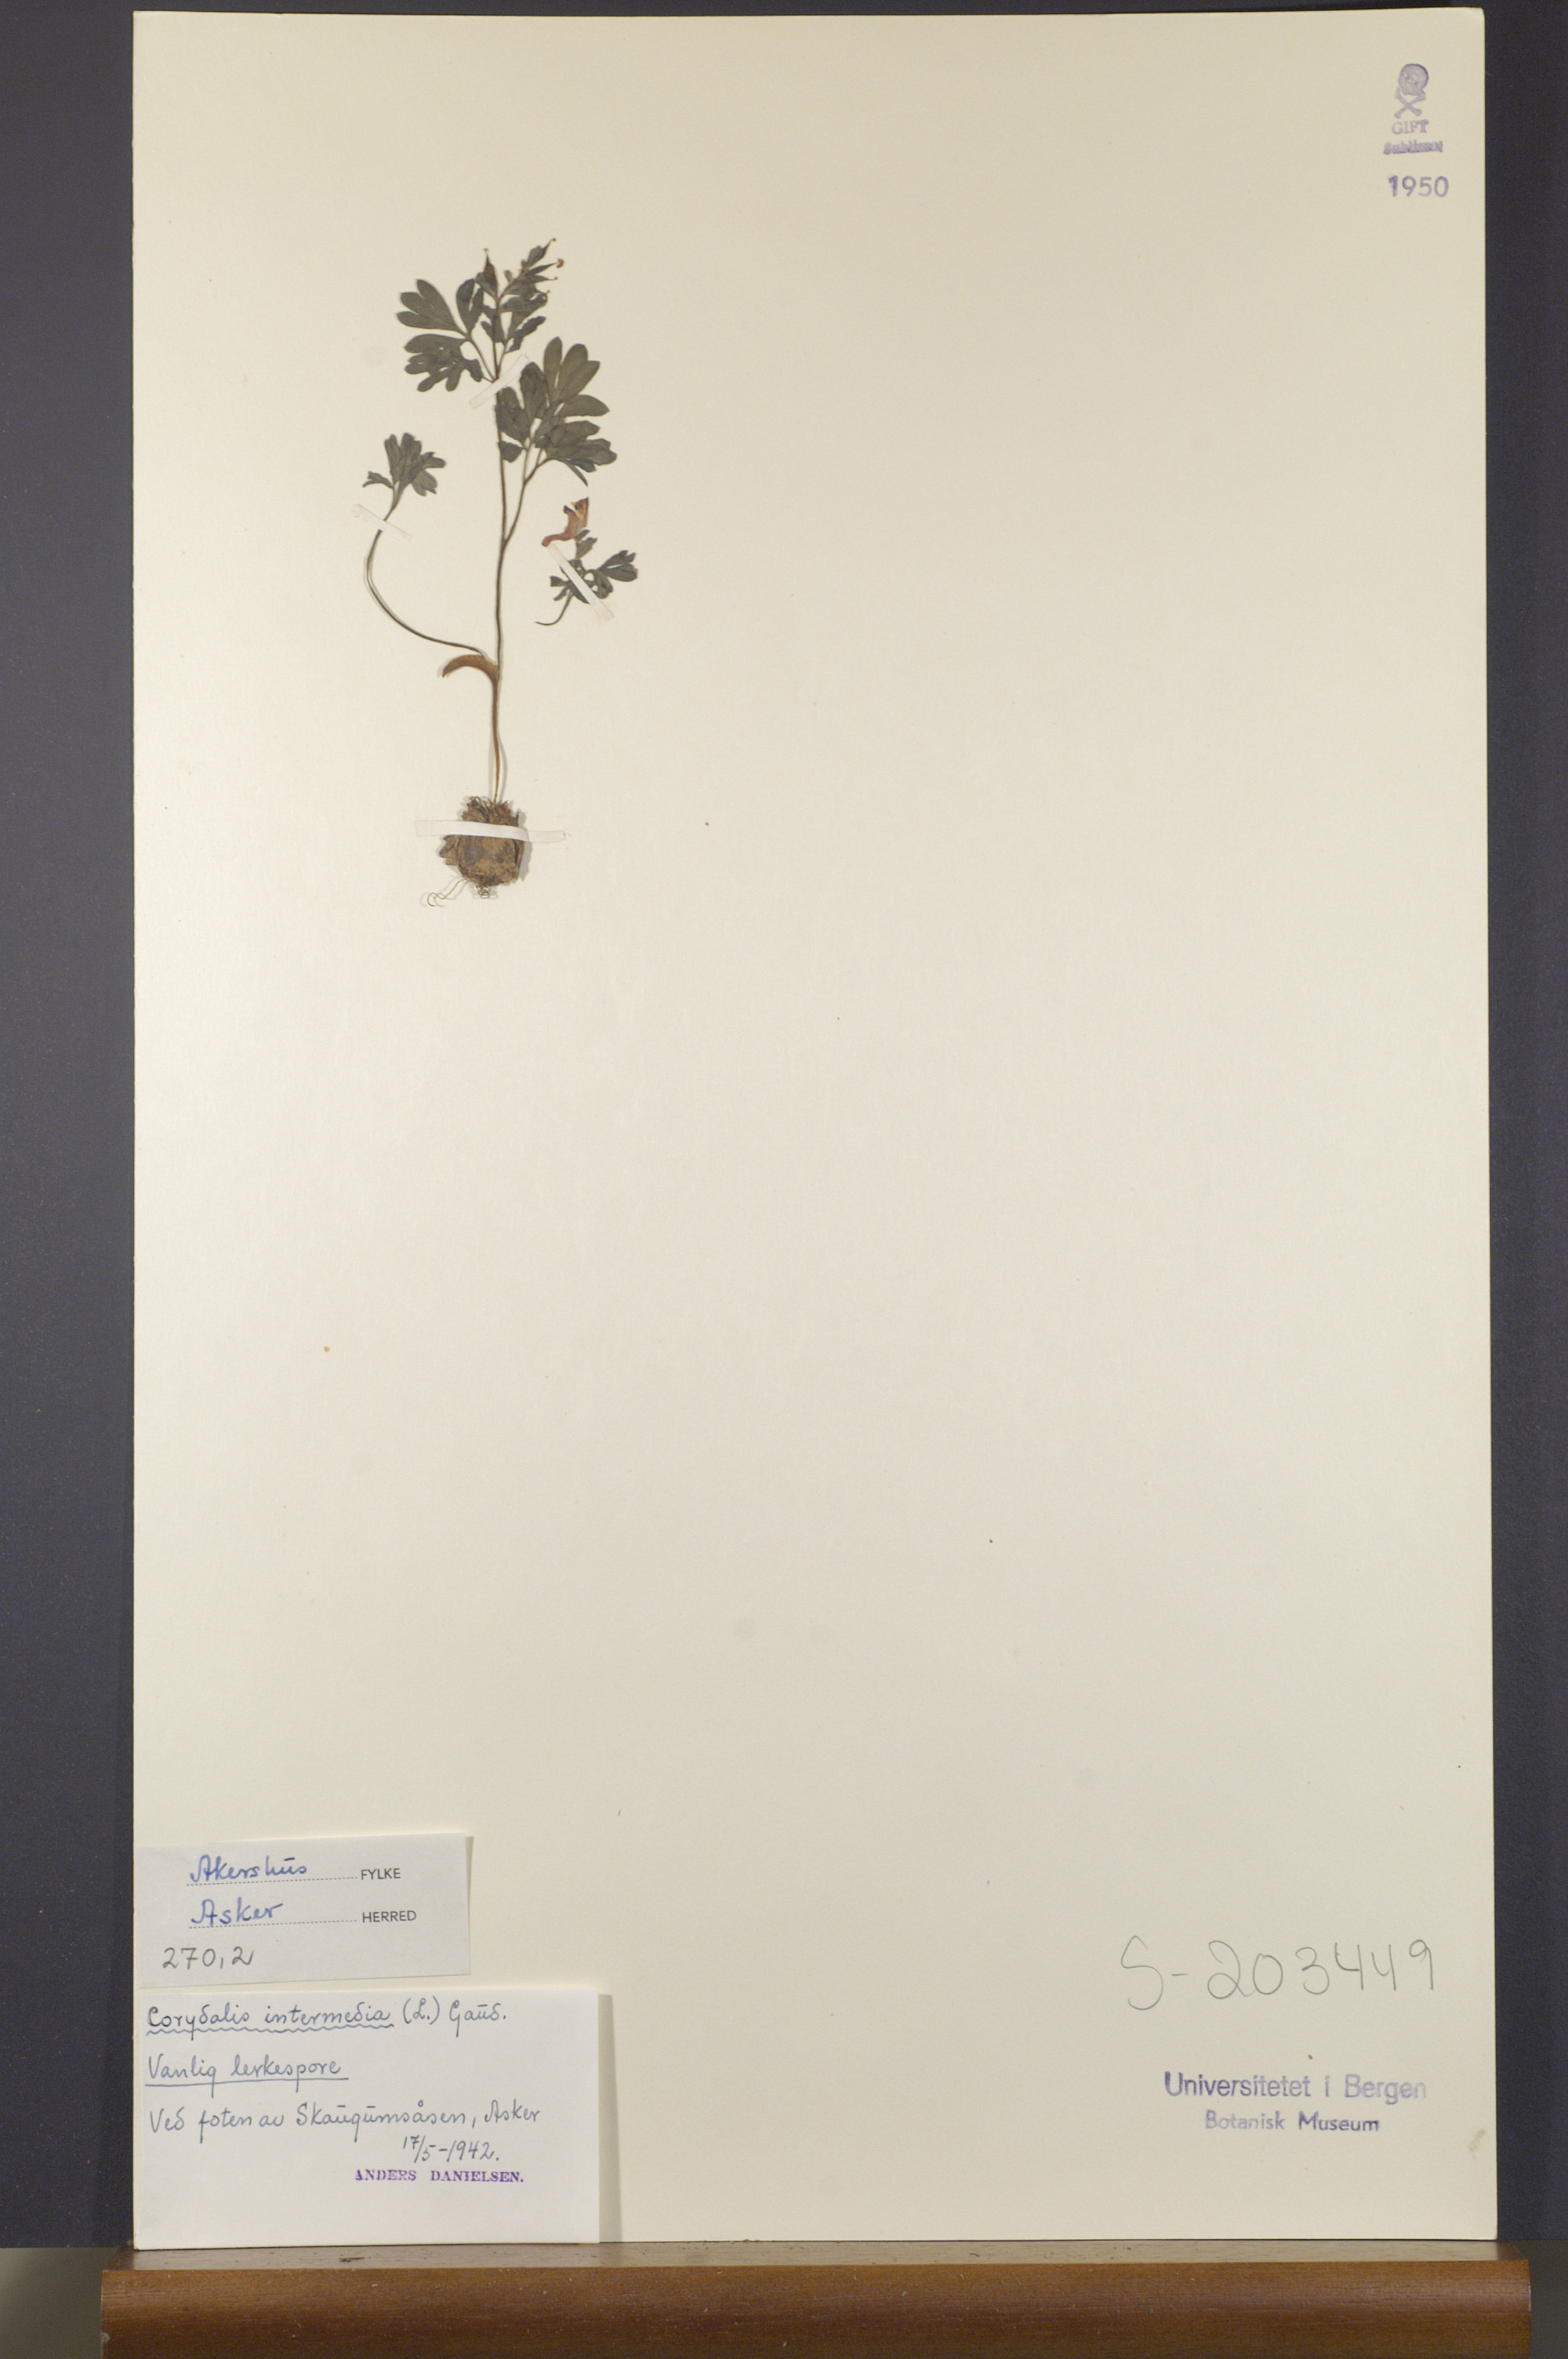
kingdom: Plantae
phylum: Tracheophyta
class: Magnoliopsida
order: Ranunculales
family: Papaveraceae
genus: Corydalis
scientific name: Corydalis intermedia
